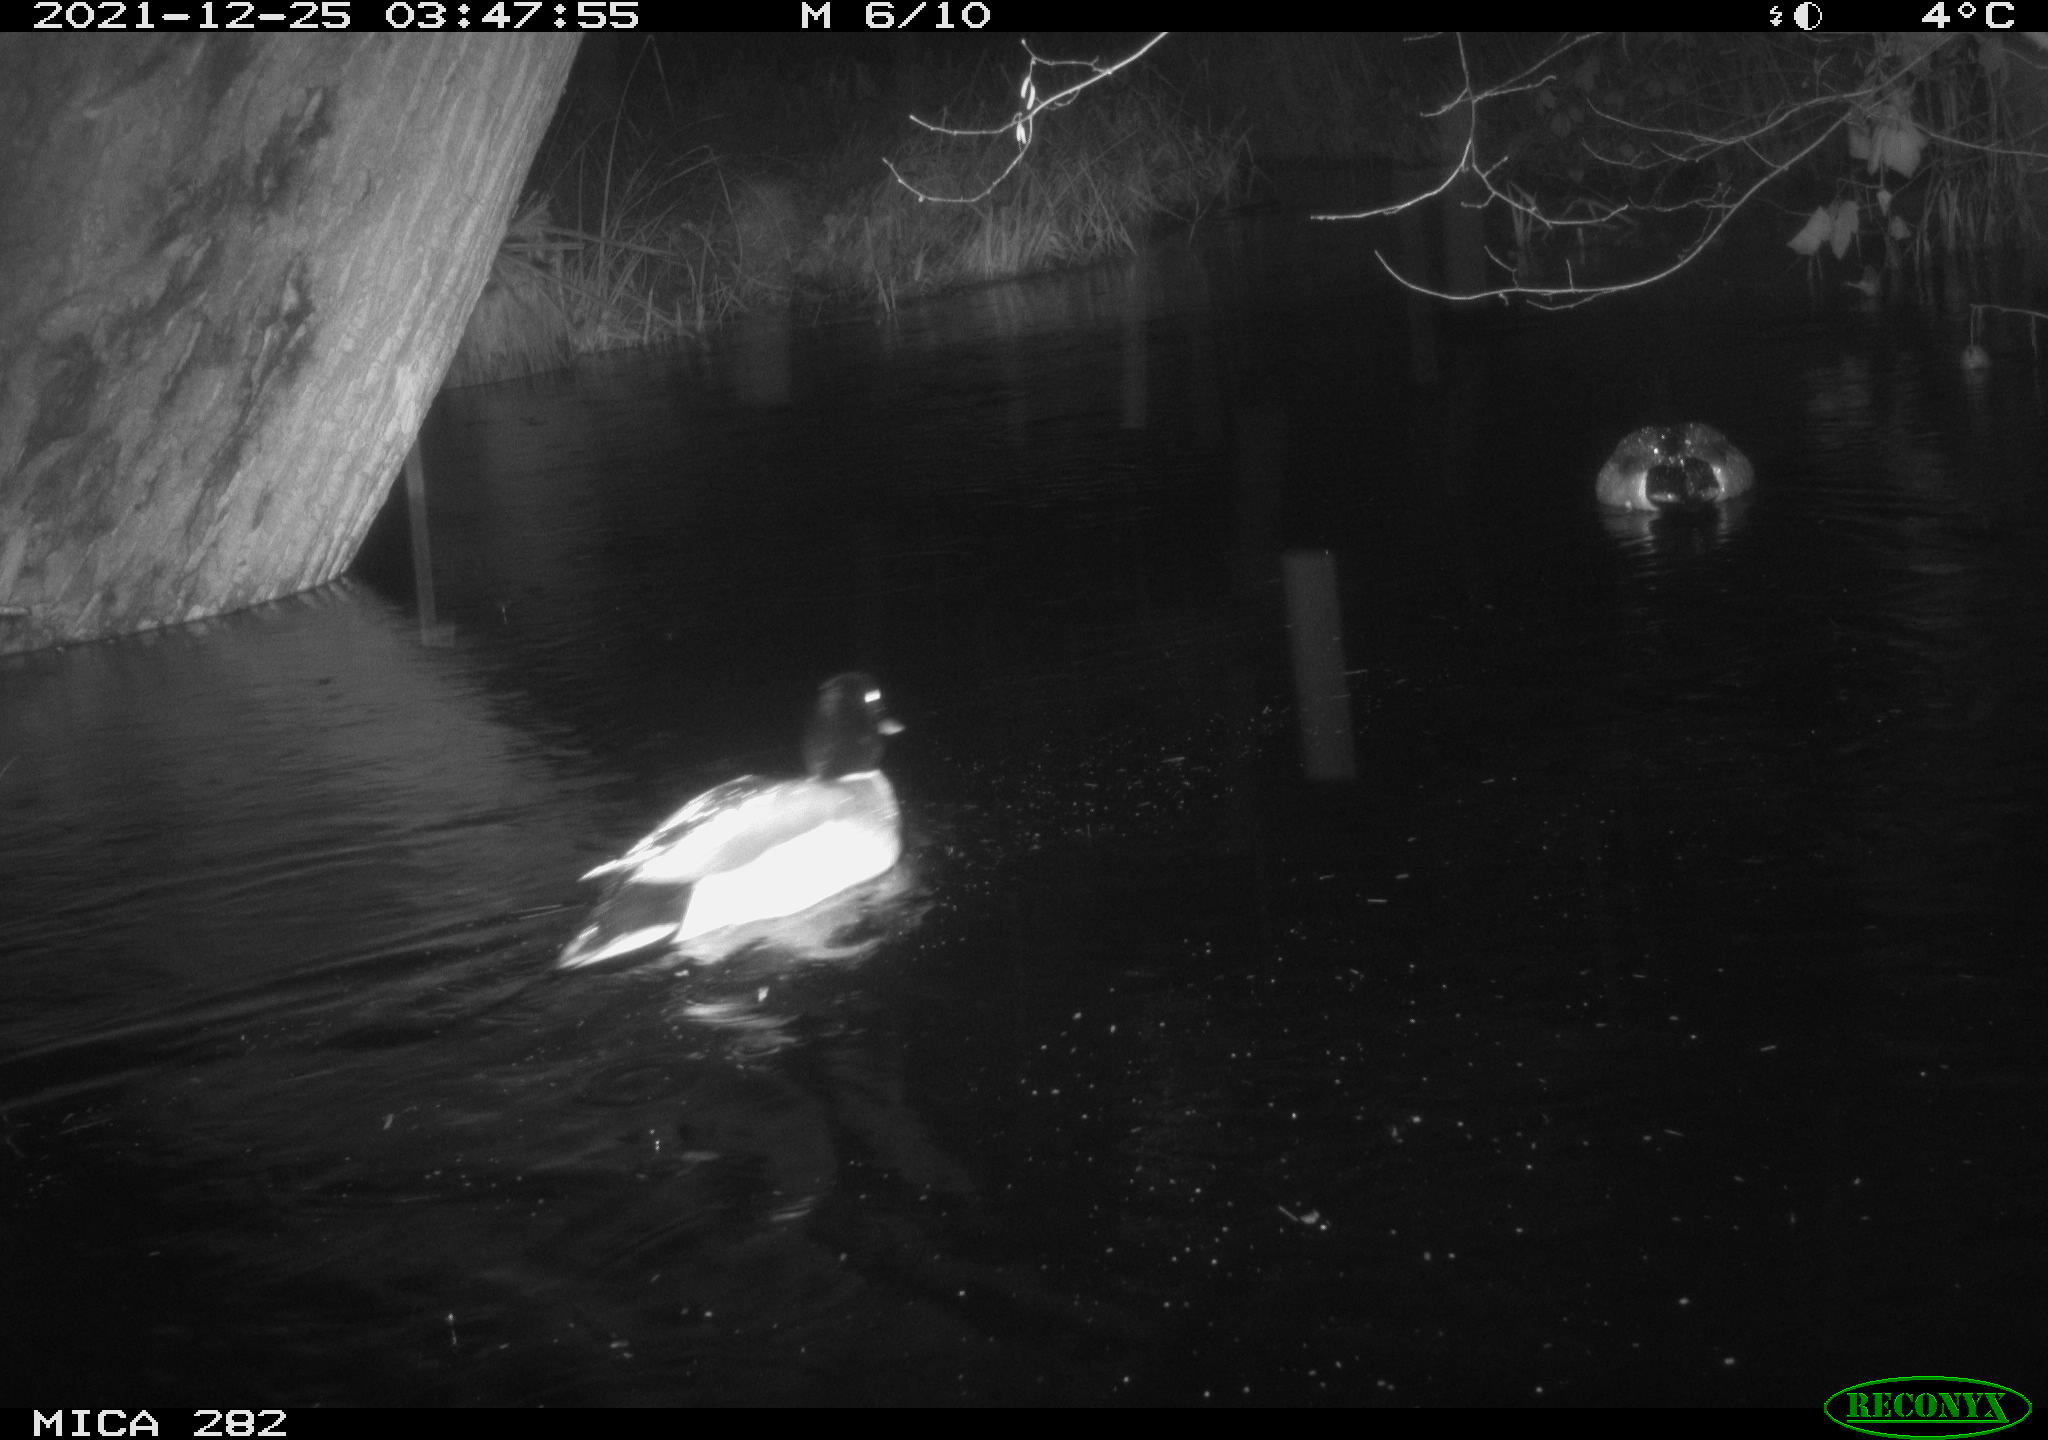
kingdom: Animalia
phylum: Chordata
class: Aves
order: Anseriformes
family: Anatidae
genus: Anas
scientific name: Anas platyrhynchos
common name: Mallard
